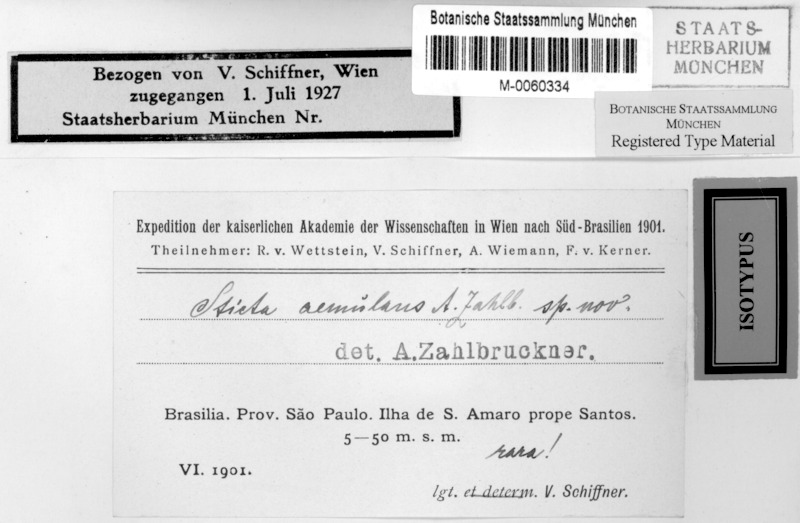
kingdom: Fungi
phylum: Ascomycota
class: Lecanoromycetes
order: Peltigerales
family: Lobariaceae
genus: Sticta
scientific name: Sticta
